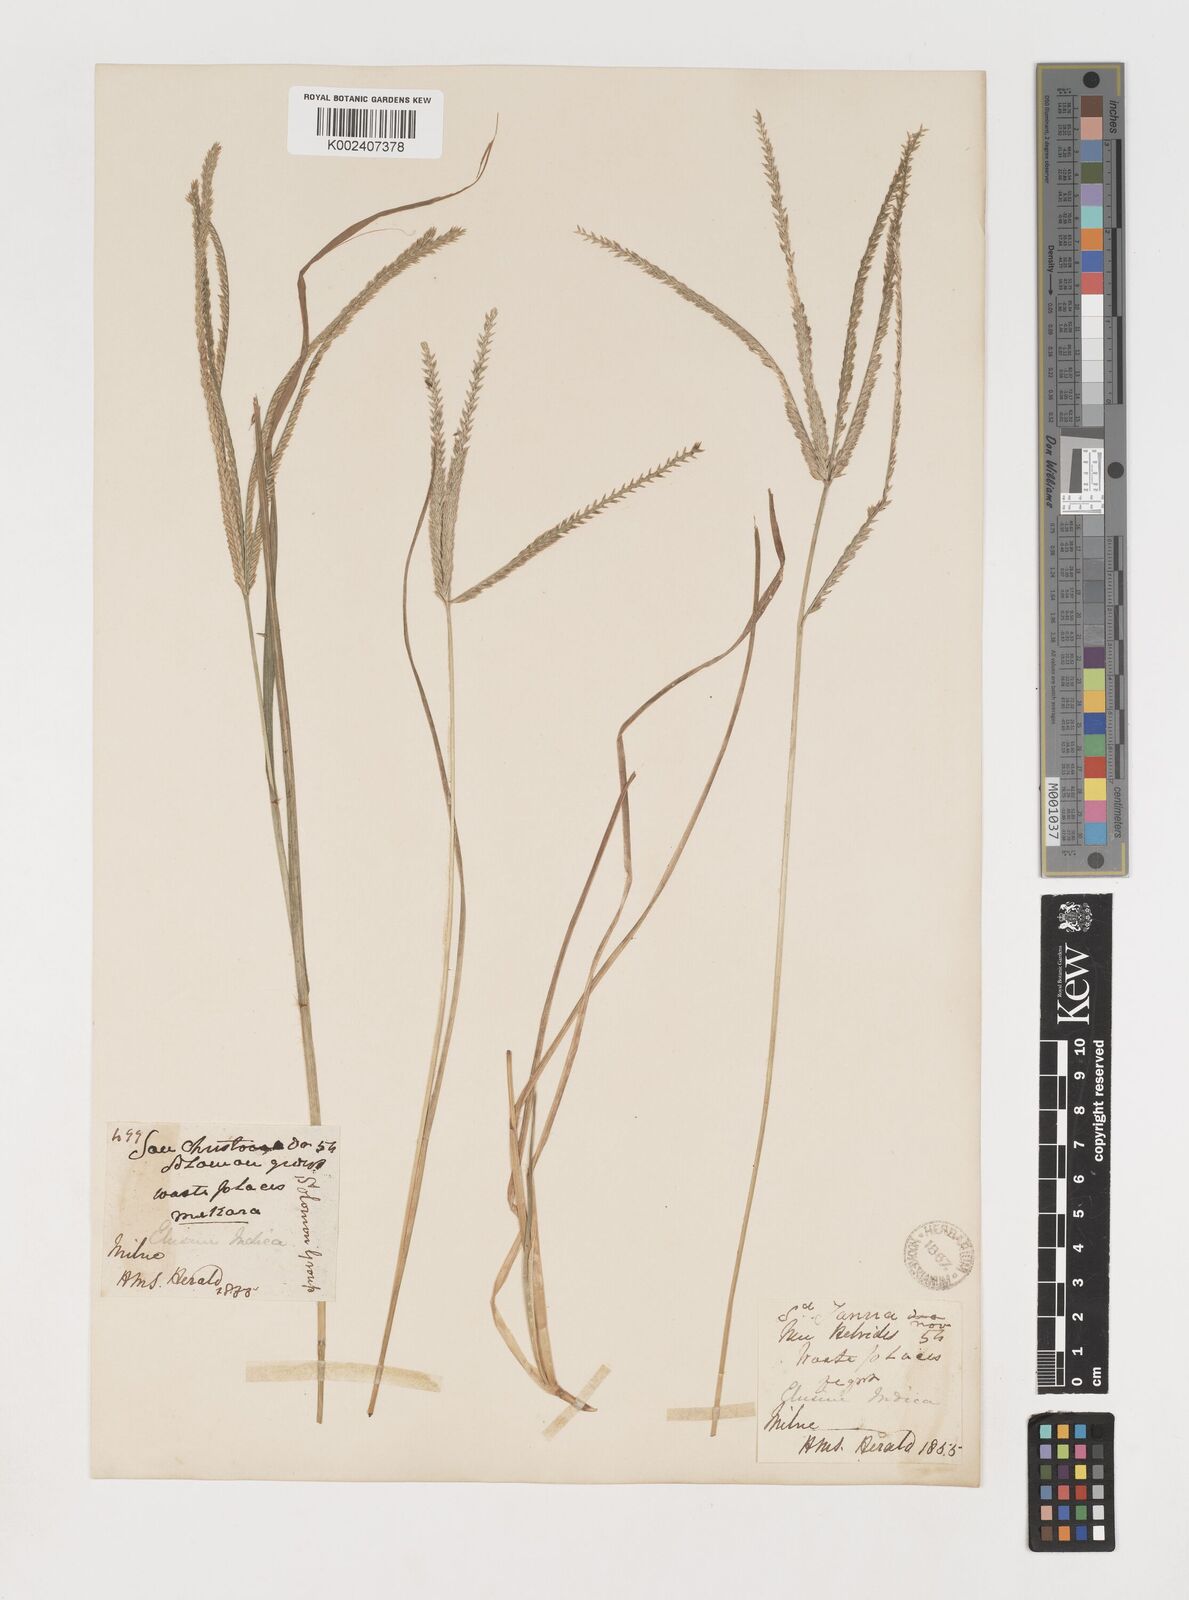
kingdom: Plantae
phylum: Tracheophyta
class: Liliopsida
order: Poales
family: Poaceae
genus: Eleusine
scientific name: Eleusine indica
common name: Yard-grass
